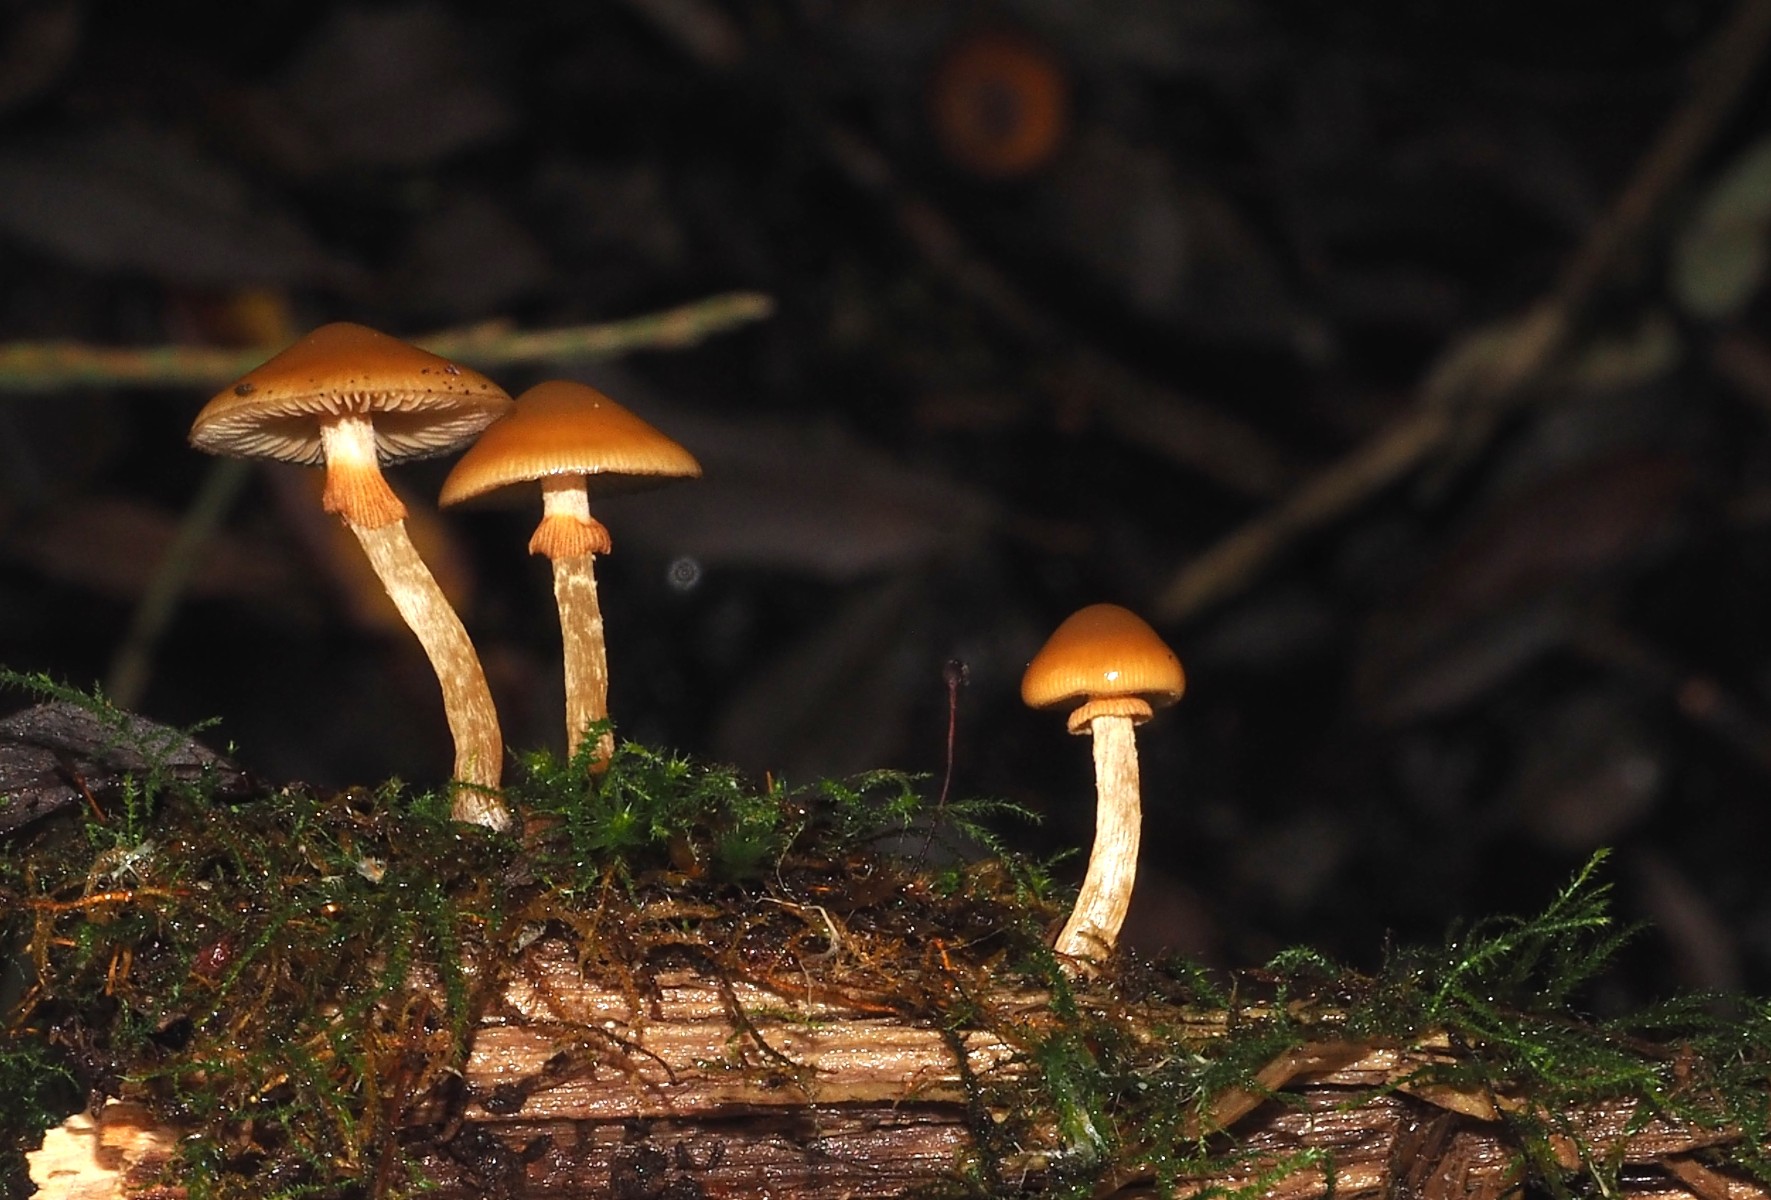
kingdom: Fungi
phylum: Basidiomycota
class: Agaricomycetes
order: Agaricales
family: Hymenogastraceae
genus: Galerina
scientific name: Galerina marginata
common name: randbæltet hjelmhat
